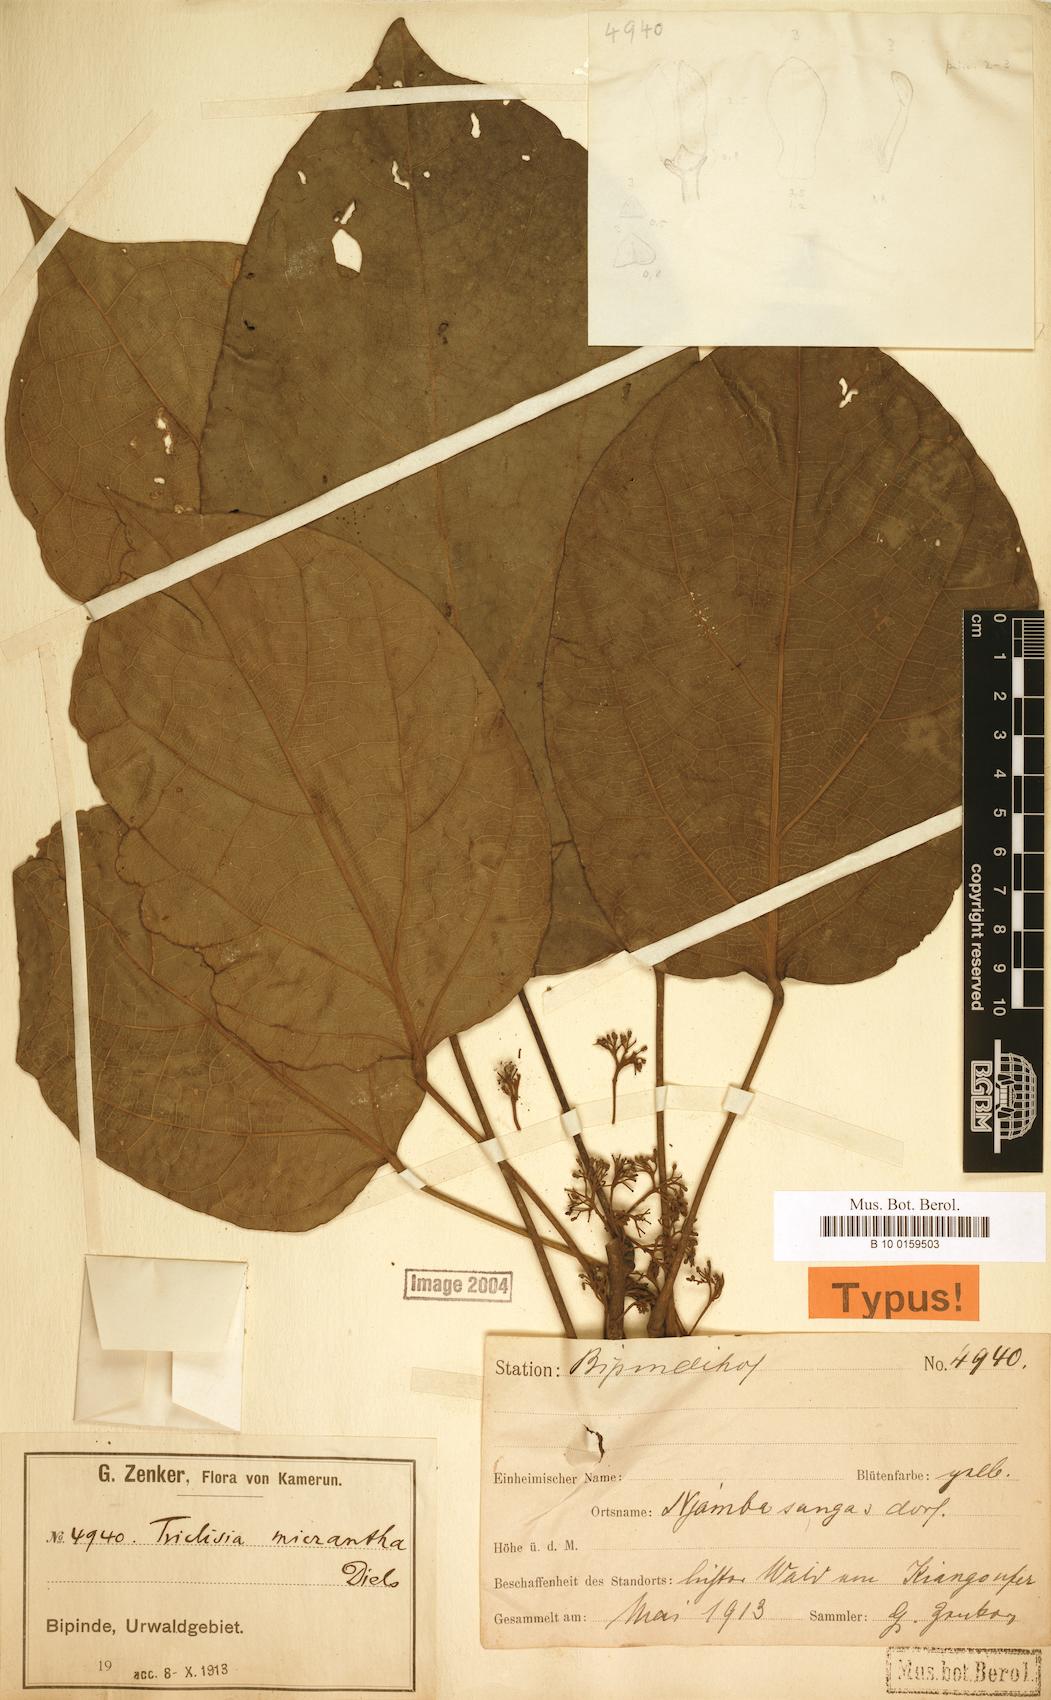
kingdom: Plantae
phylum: Tracheophyta
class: Magnoliopsida
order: Ranunculales
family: Menispermaceae
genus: Triclisia
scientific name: Triclisia
